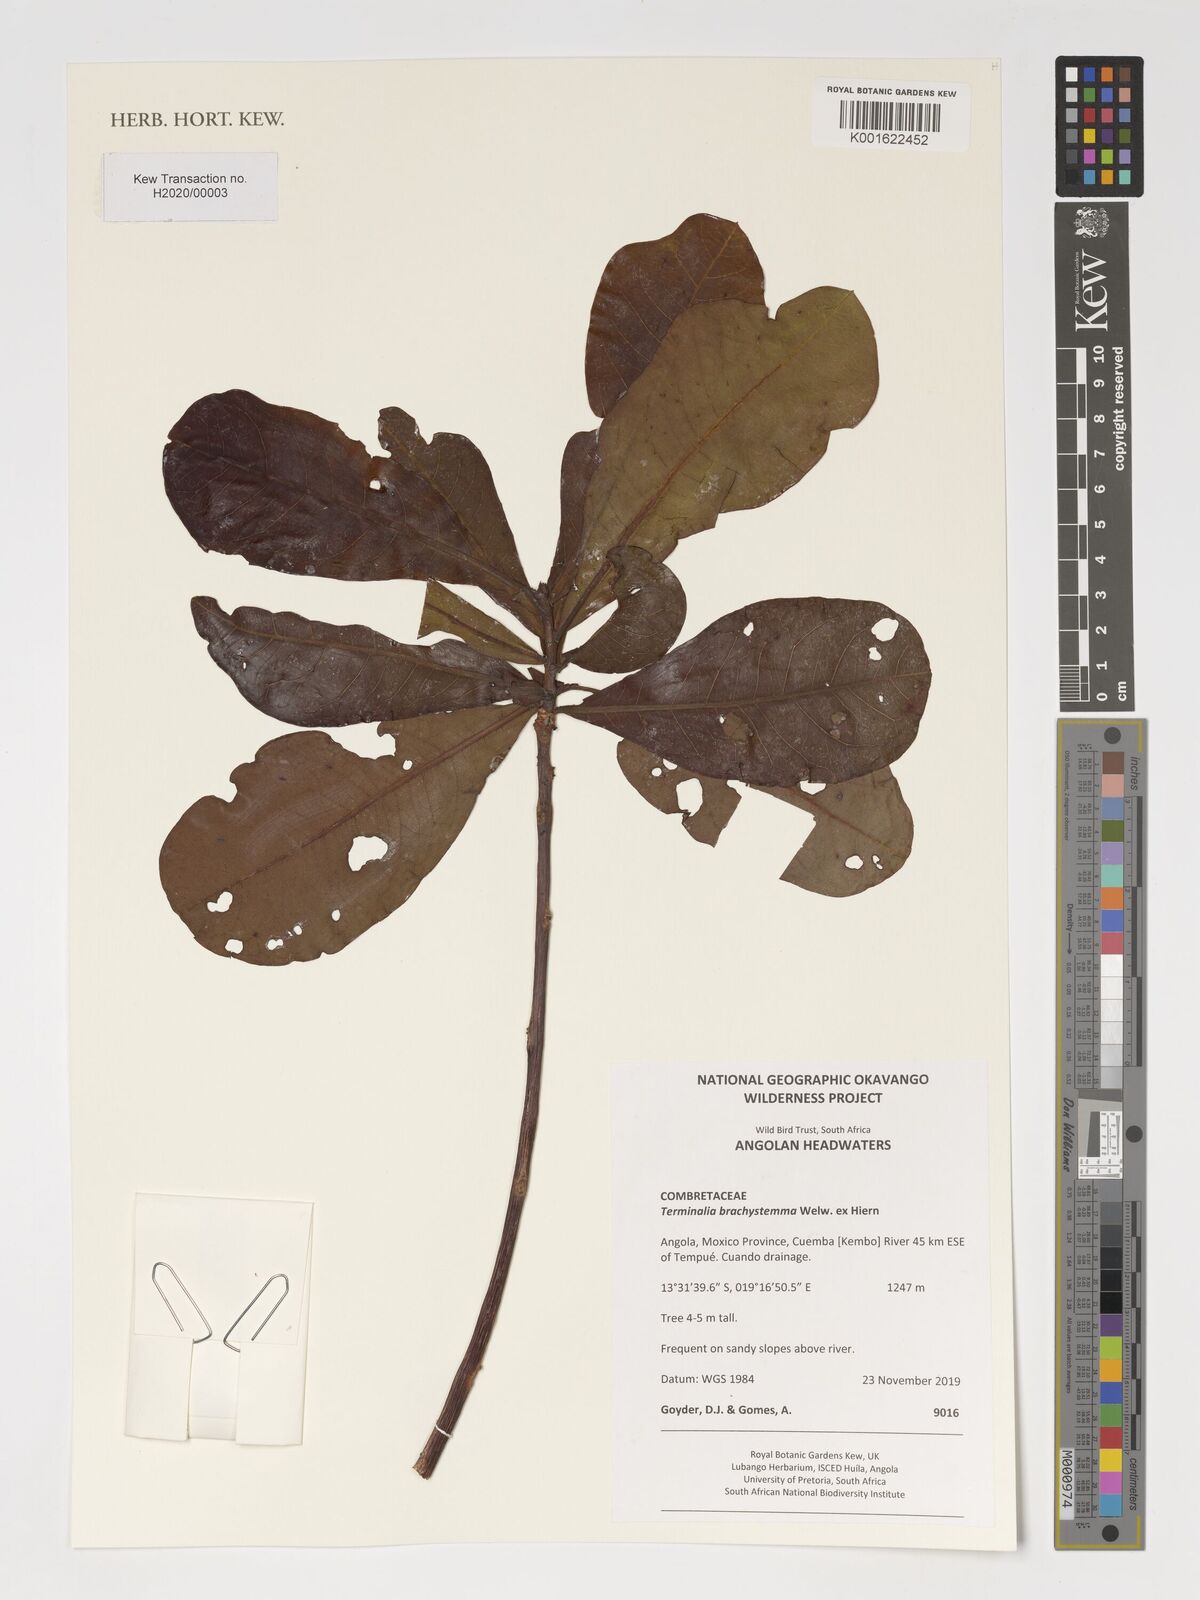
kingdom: Plantae
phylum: Tracheophyta
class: Magnoliopsida
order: Myrtales
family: Combretaceae
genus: Terminalia
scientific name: Terminalia brachystemma
